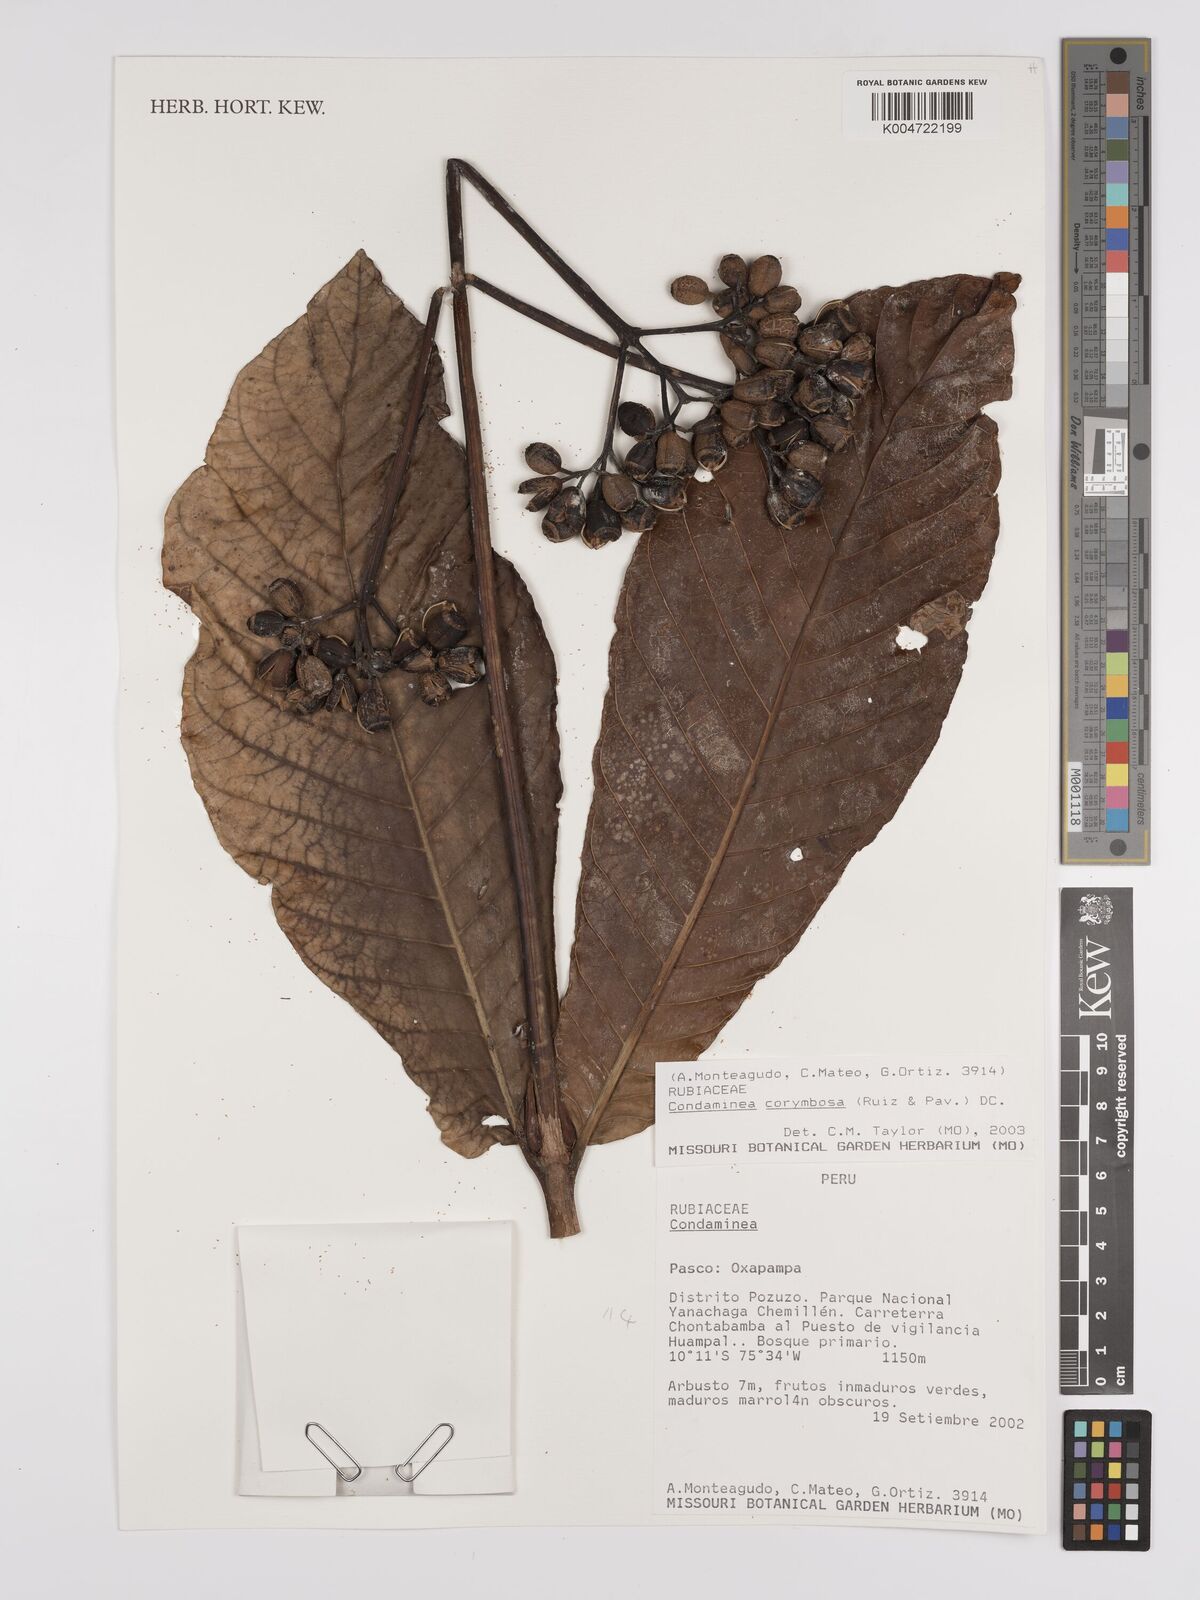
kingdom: Plantae
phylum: Tracheophyta
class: Magnoliopsida
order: Gentianales
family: Rubiaceae
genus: Condaminea
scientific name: Condaminea corymbosa
